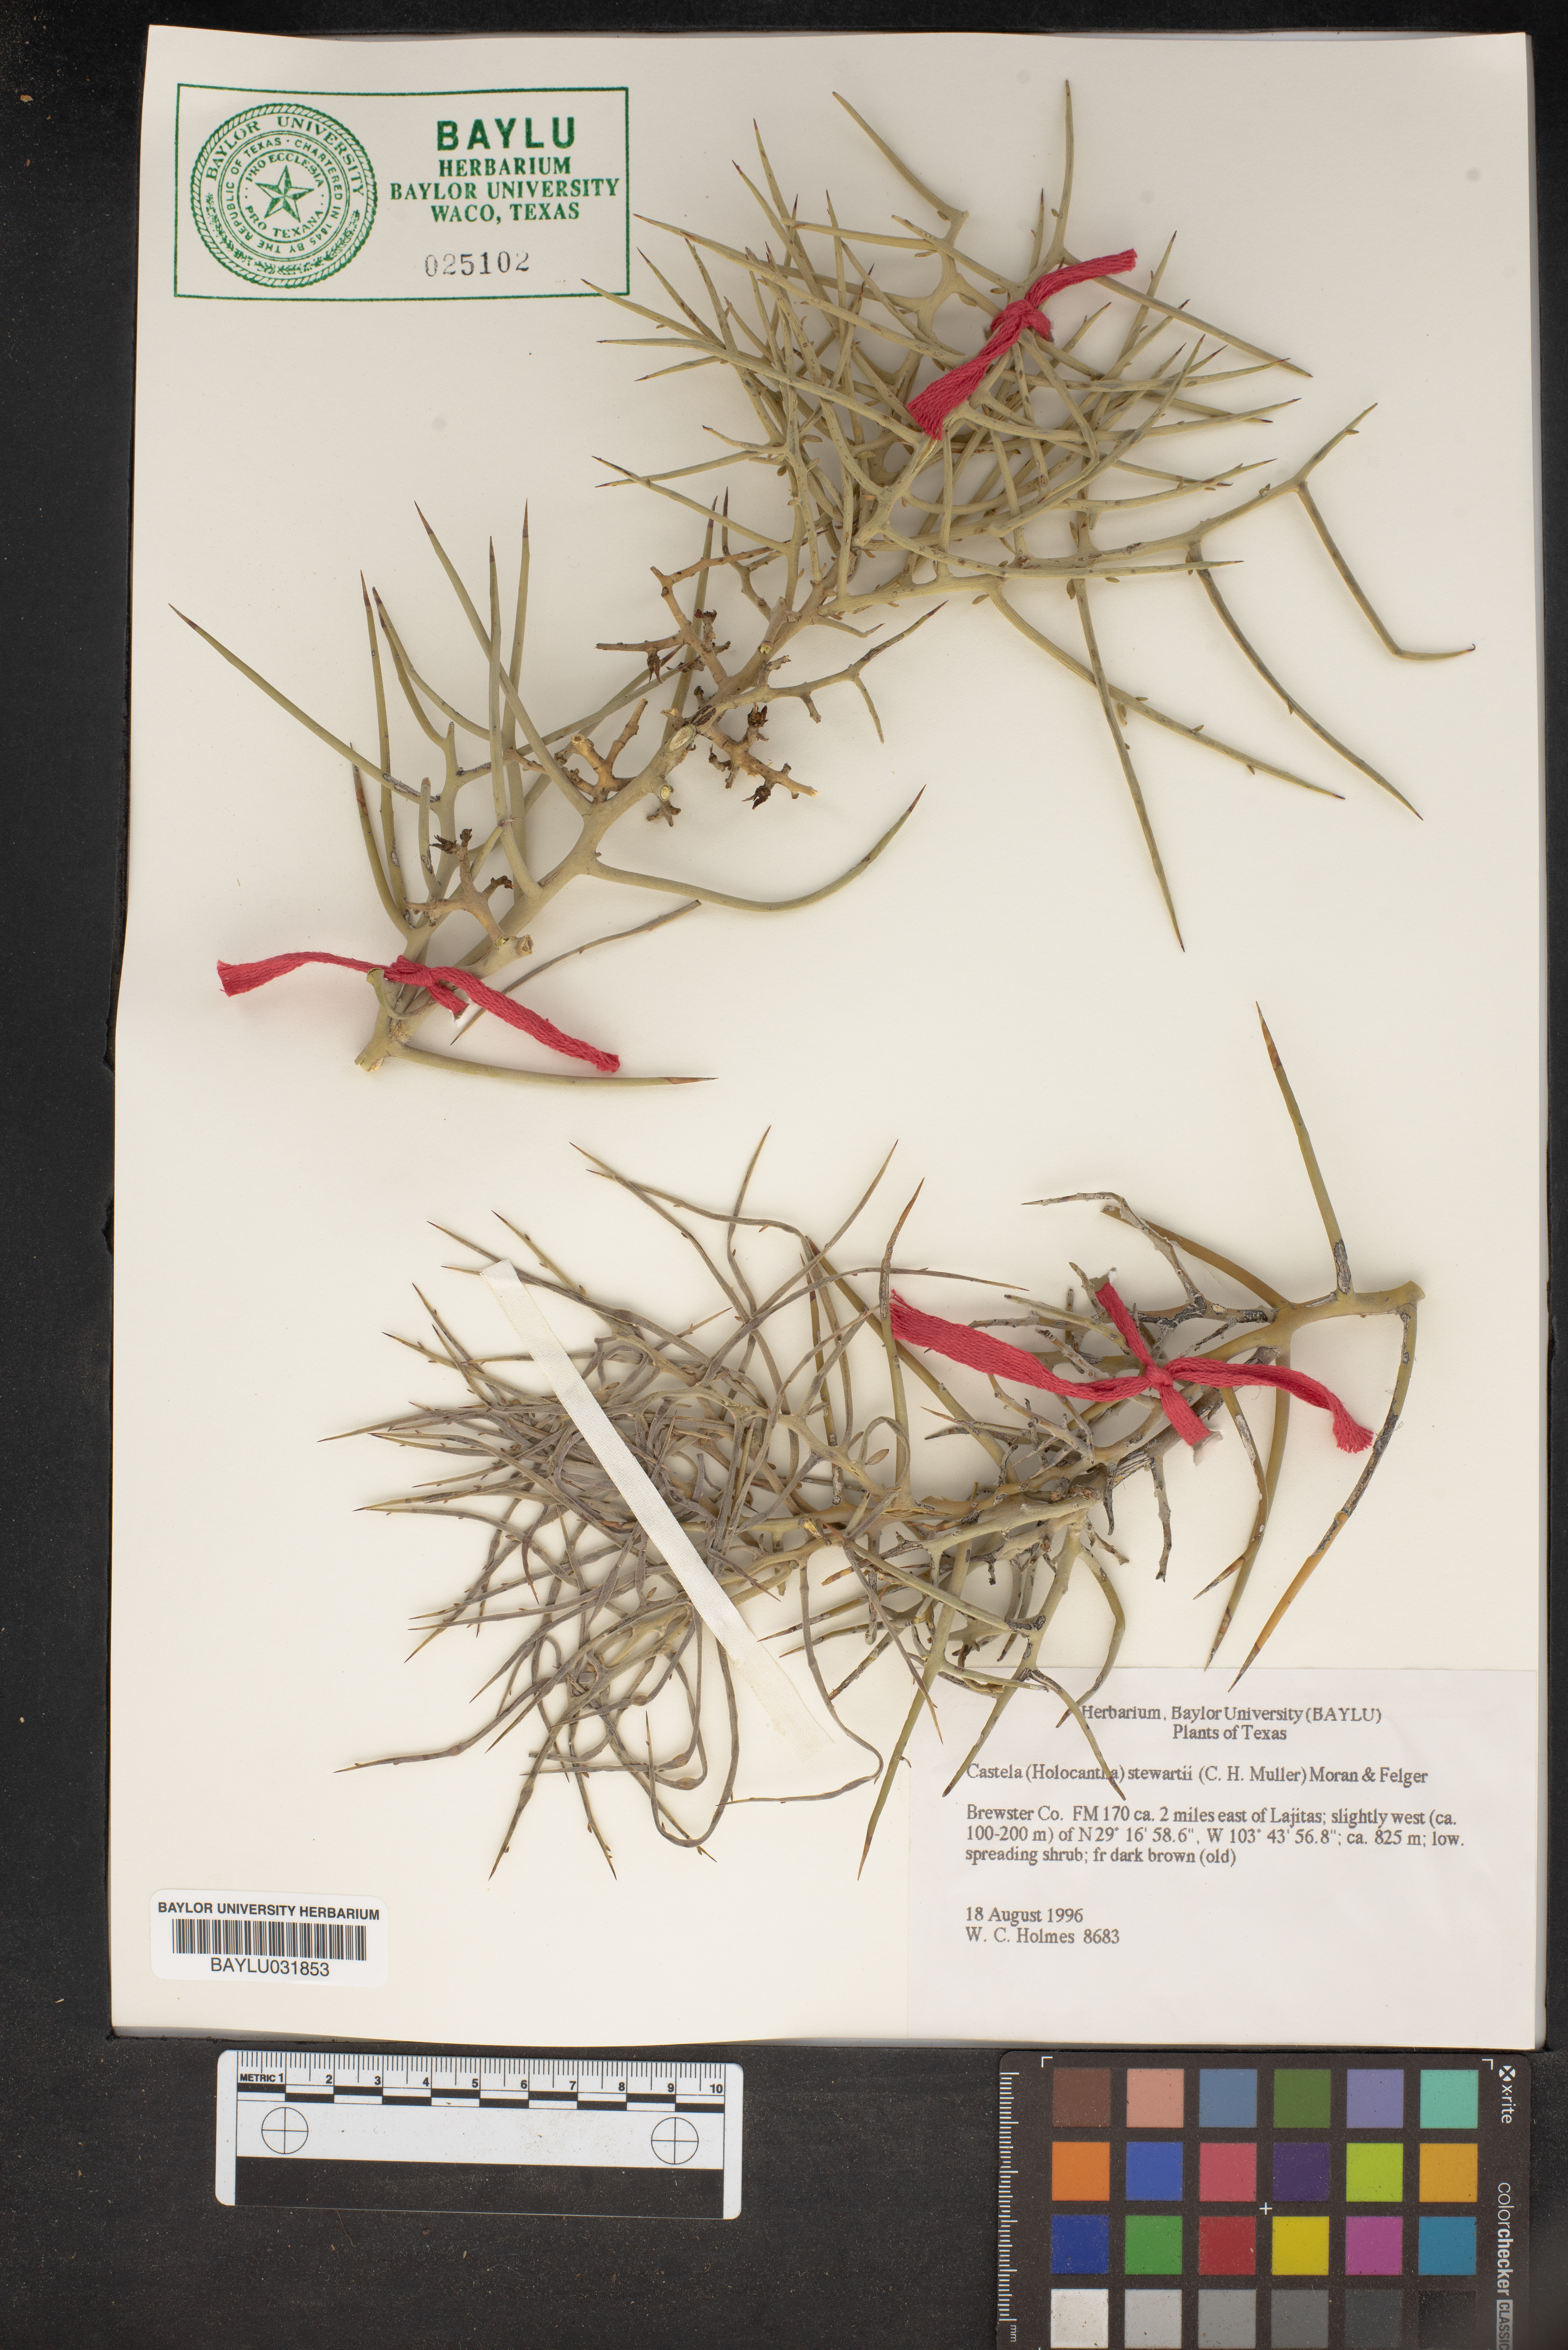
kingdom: Plantae
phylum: Tracheophyta
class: Magnoliopsida
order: Sapindales
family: Simaroubaceae
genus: Holacantha
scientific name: Holacantha stewartii
